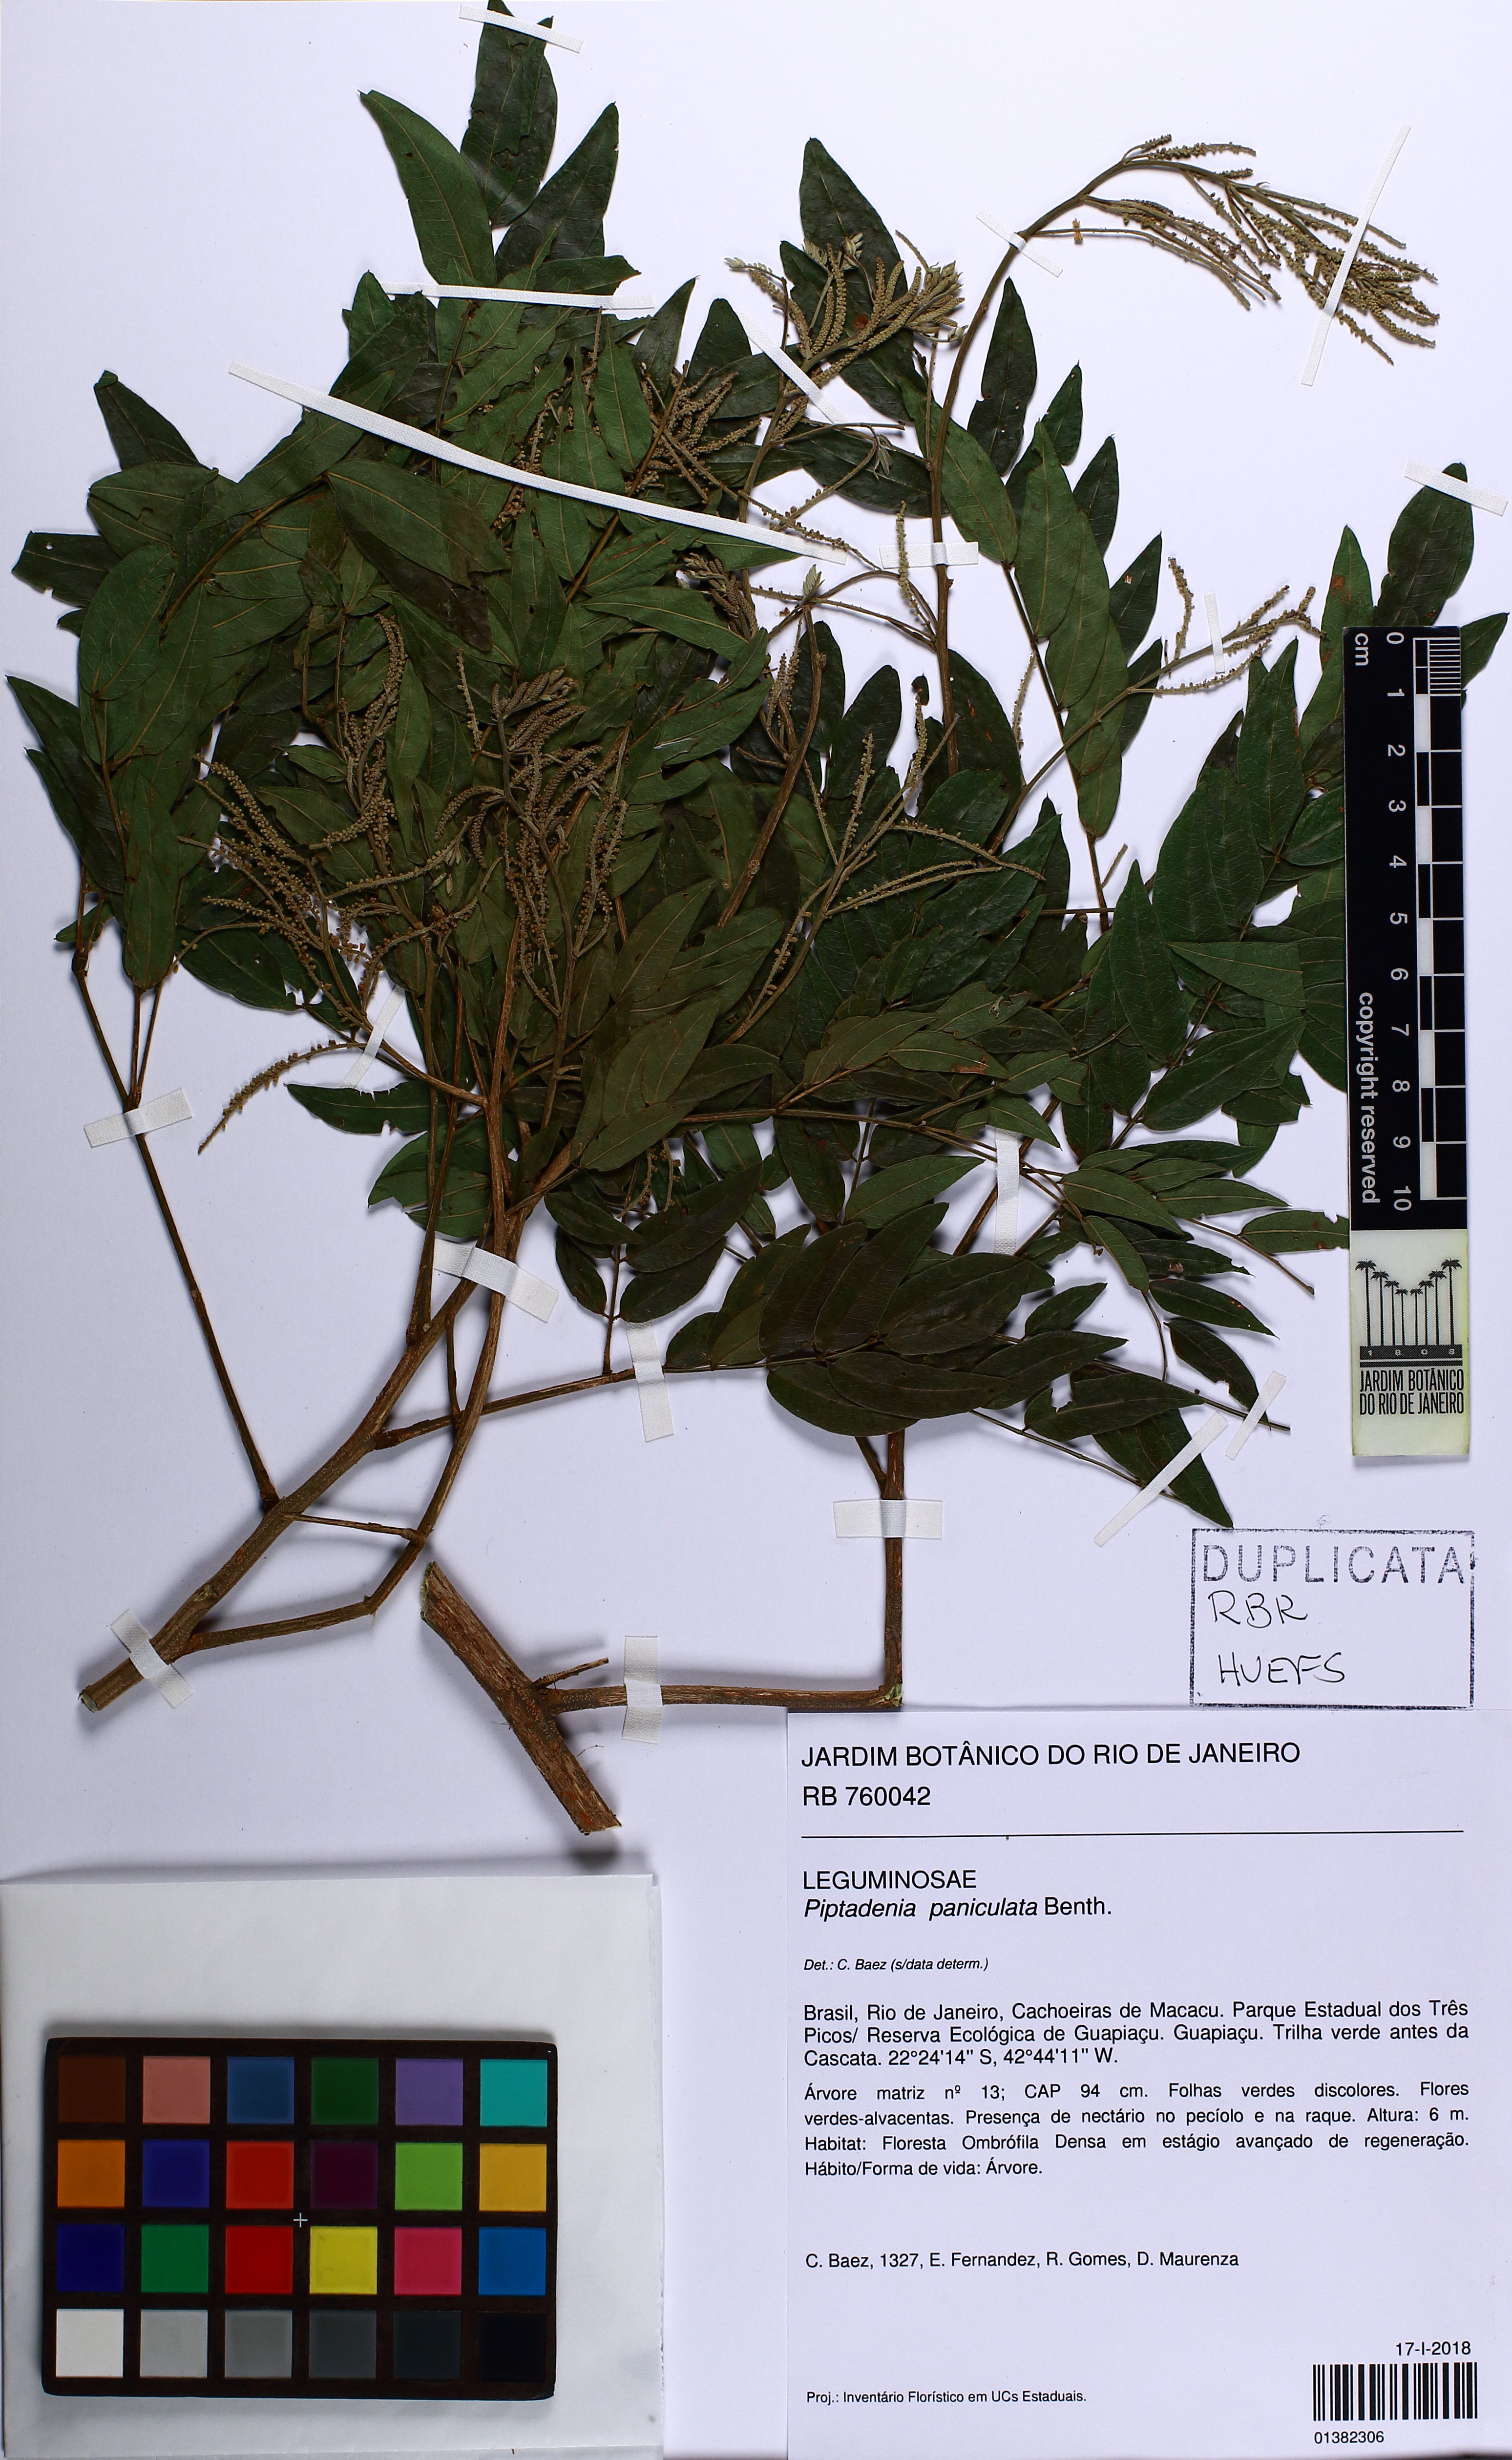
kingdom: Plantae
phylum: Tracheophyta
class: Magnoliopsida
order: Fabales
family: Fabaceae
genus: Piptadenia
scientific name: Piptadenia paniculata
